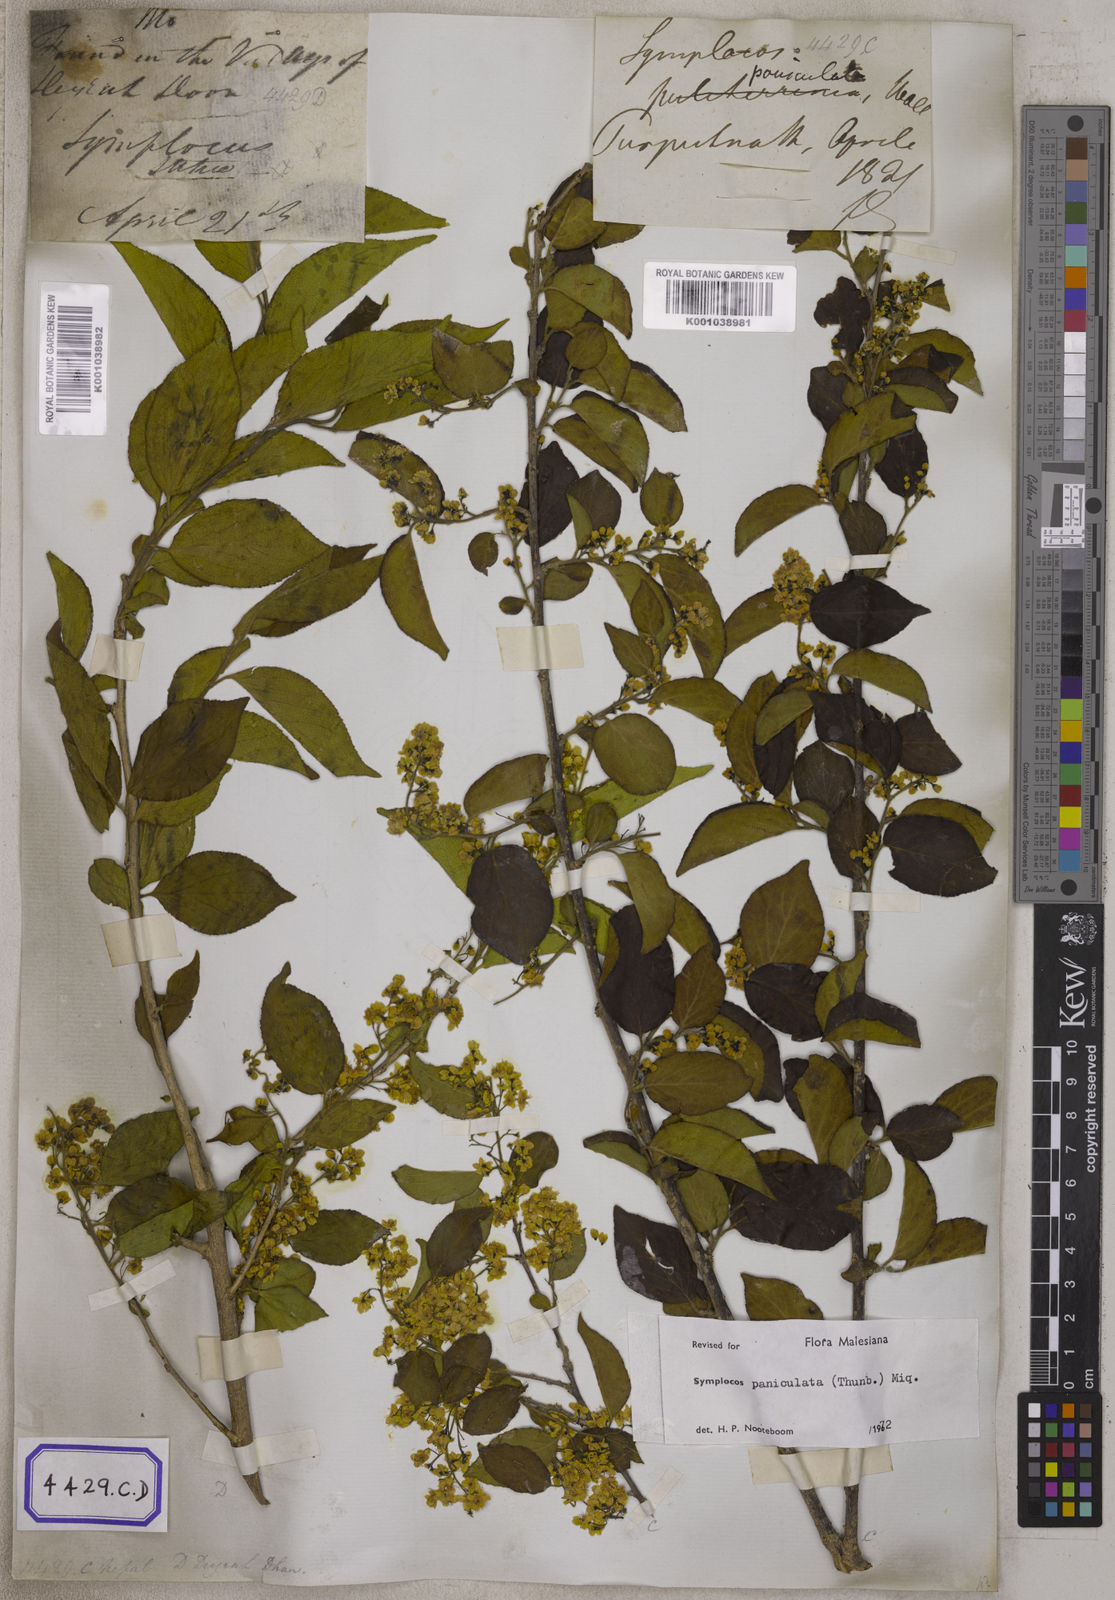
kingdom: Plantae
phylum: Tracheophyta
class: Magnoliopsida
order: Ericales
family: Symplocaceae
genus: Symplocos
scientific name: Symplocos
